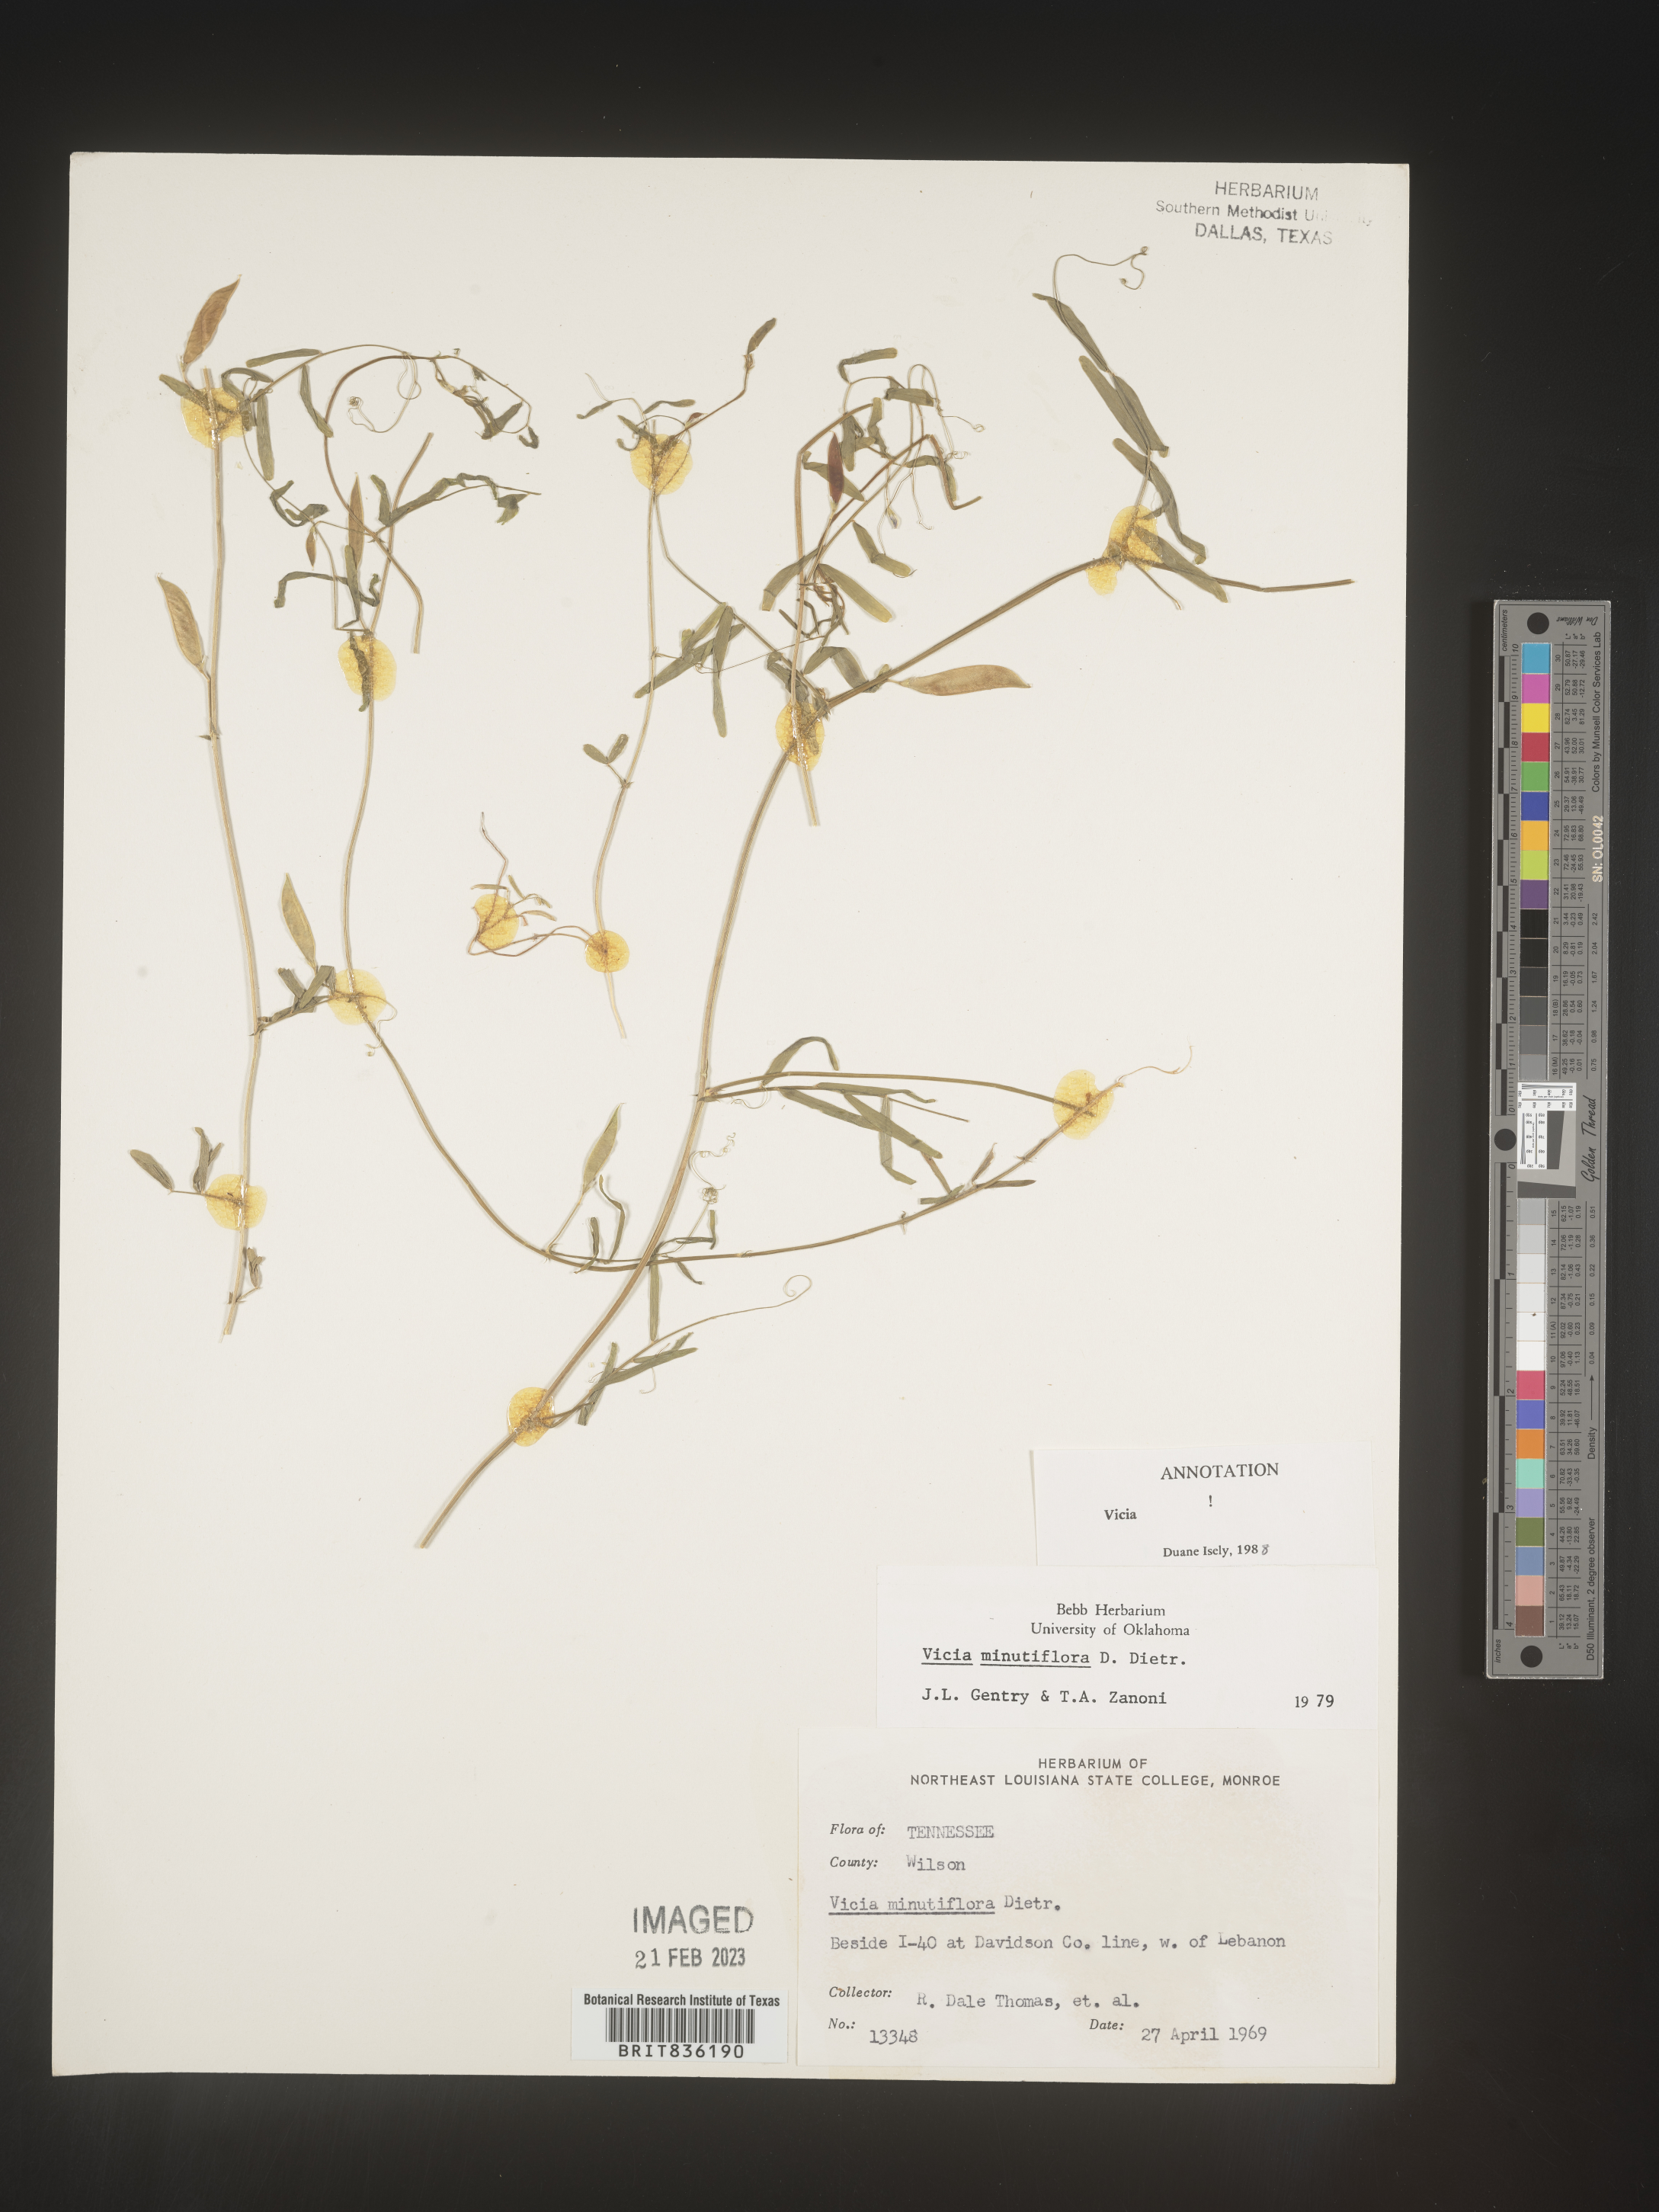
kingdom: Plantae
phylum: Tracheophyta
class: Magnoliopsida
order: Fabales
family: Fabaceae
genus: Vicia
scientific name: Vicia minutiflora
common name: Pygmy-flower vetch
